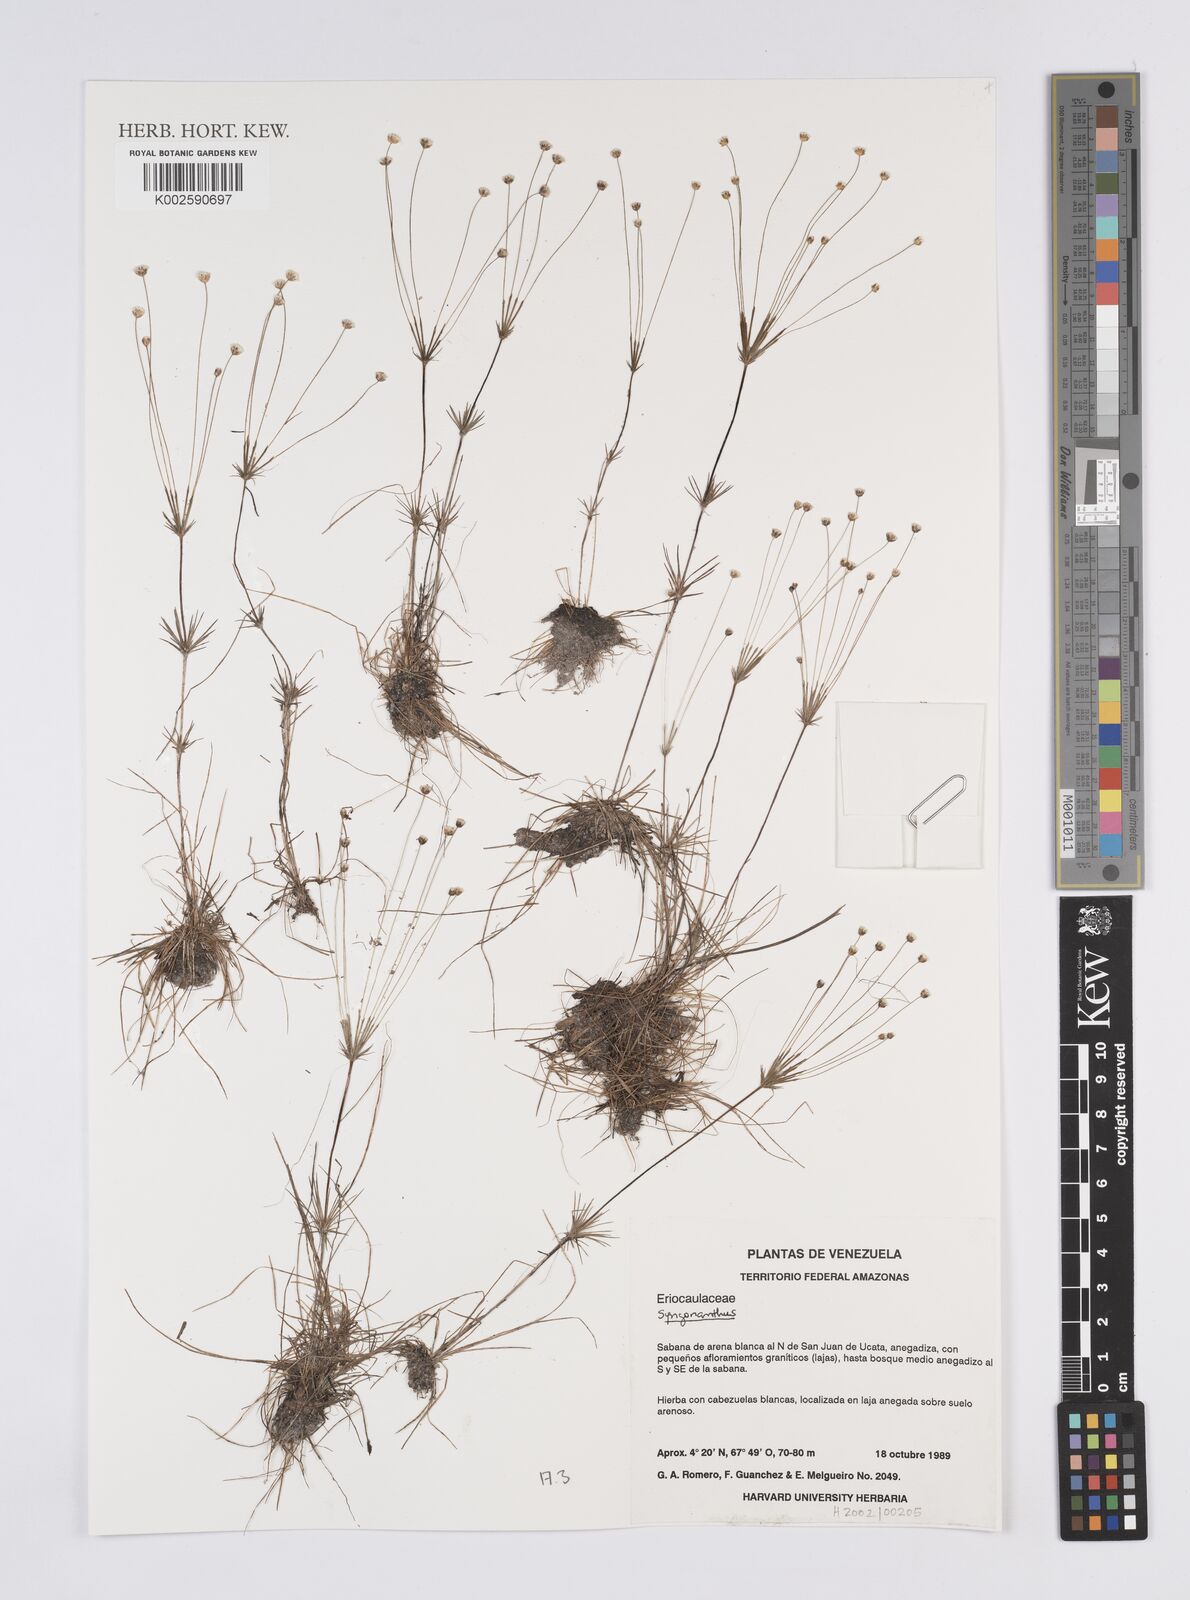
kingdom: Plantae
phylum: Tracheophyta
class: Liliopsida
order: Poales
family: Eriocaulaceae
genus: Syngonanthus
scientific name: Syngonanthus
